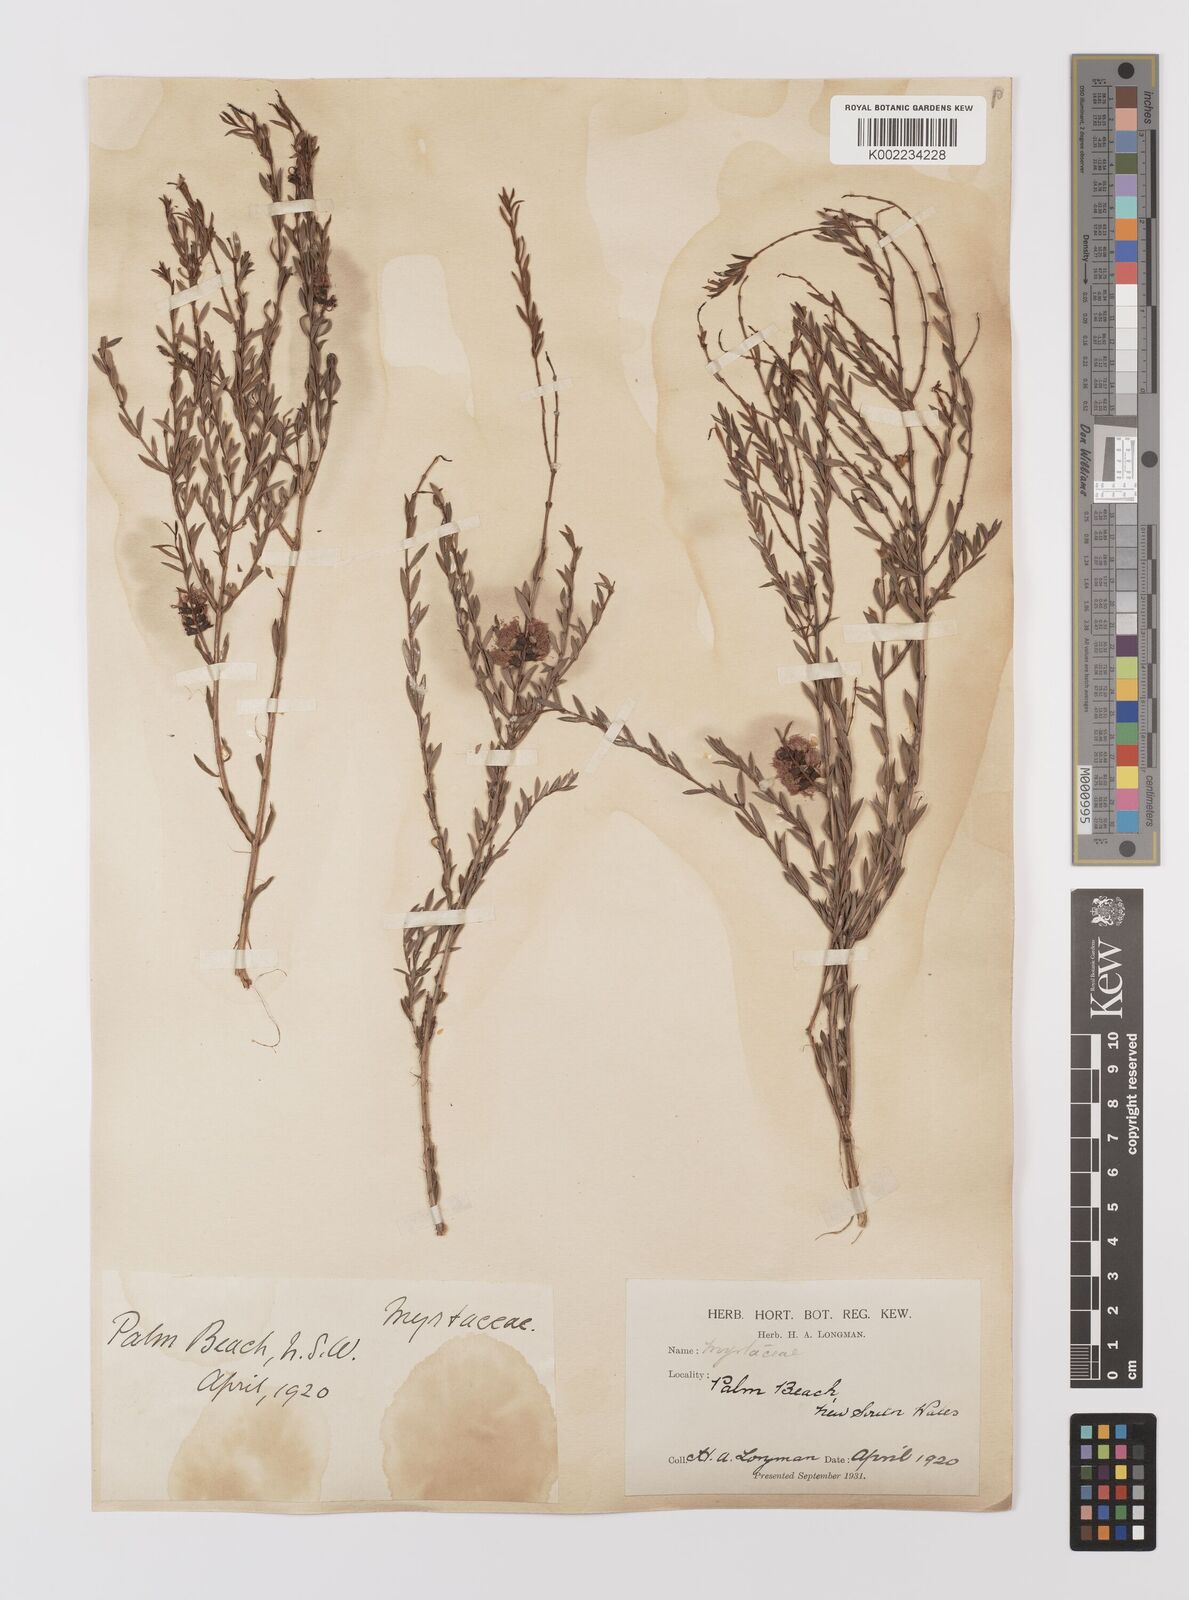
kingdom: Plantae
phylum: Tracheophyta
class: Magnoliopsida
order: Myrtales
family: Myrtaceae
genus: Melaleuca
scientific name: Melaleuca thymifolia
